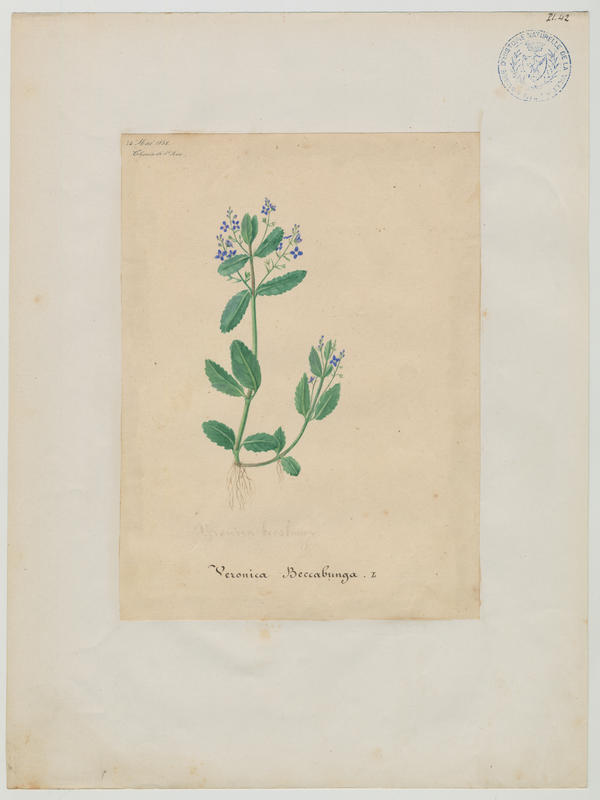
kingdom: Plantae
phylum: Tracheophyta
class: Magnoliopsida
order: Lamiales
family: Plantaginaceae
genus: Veronica
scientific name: Veronica beccabunga
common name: Brooklime
